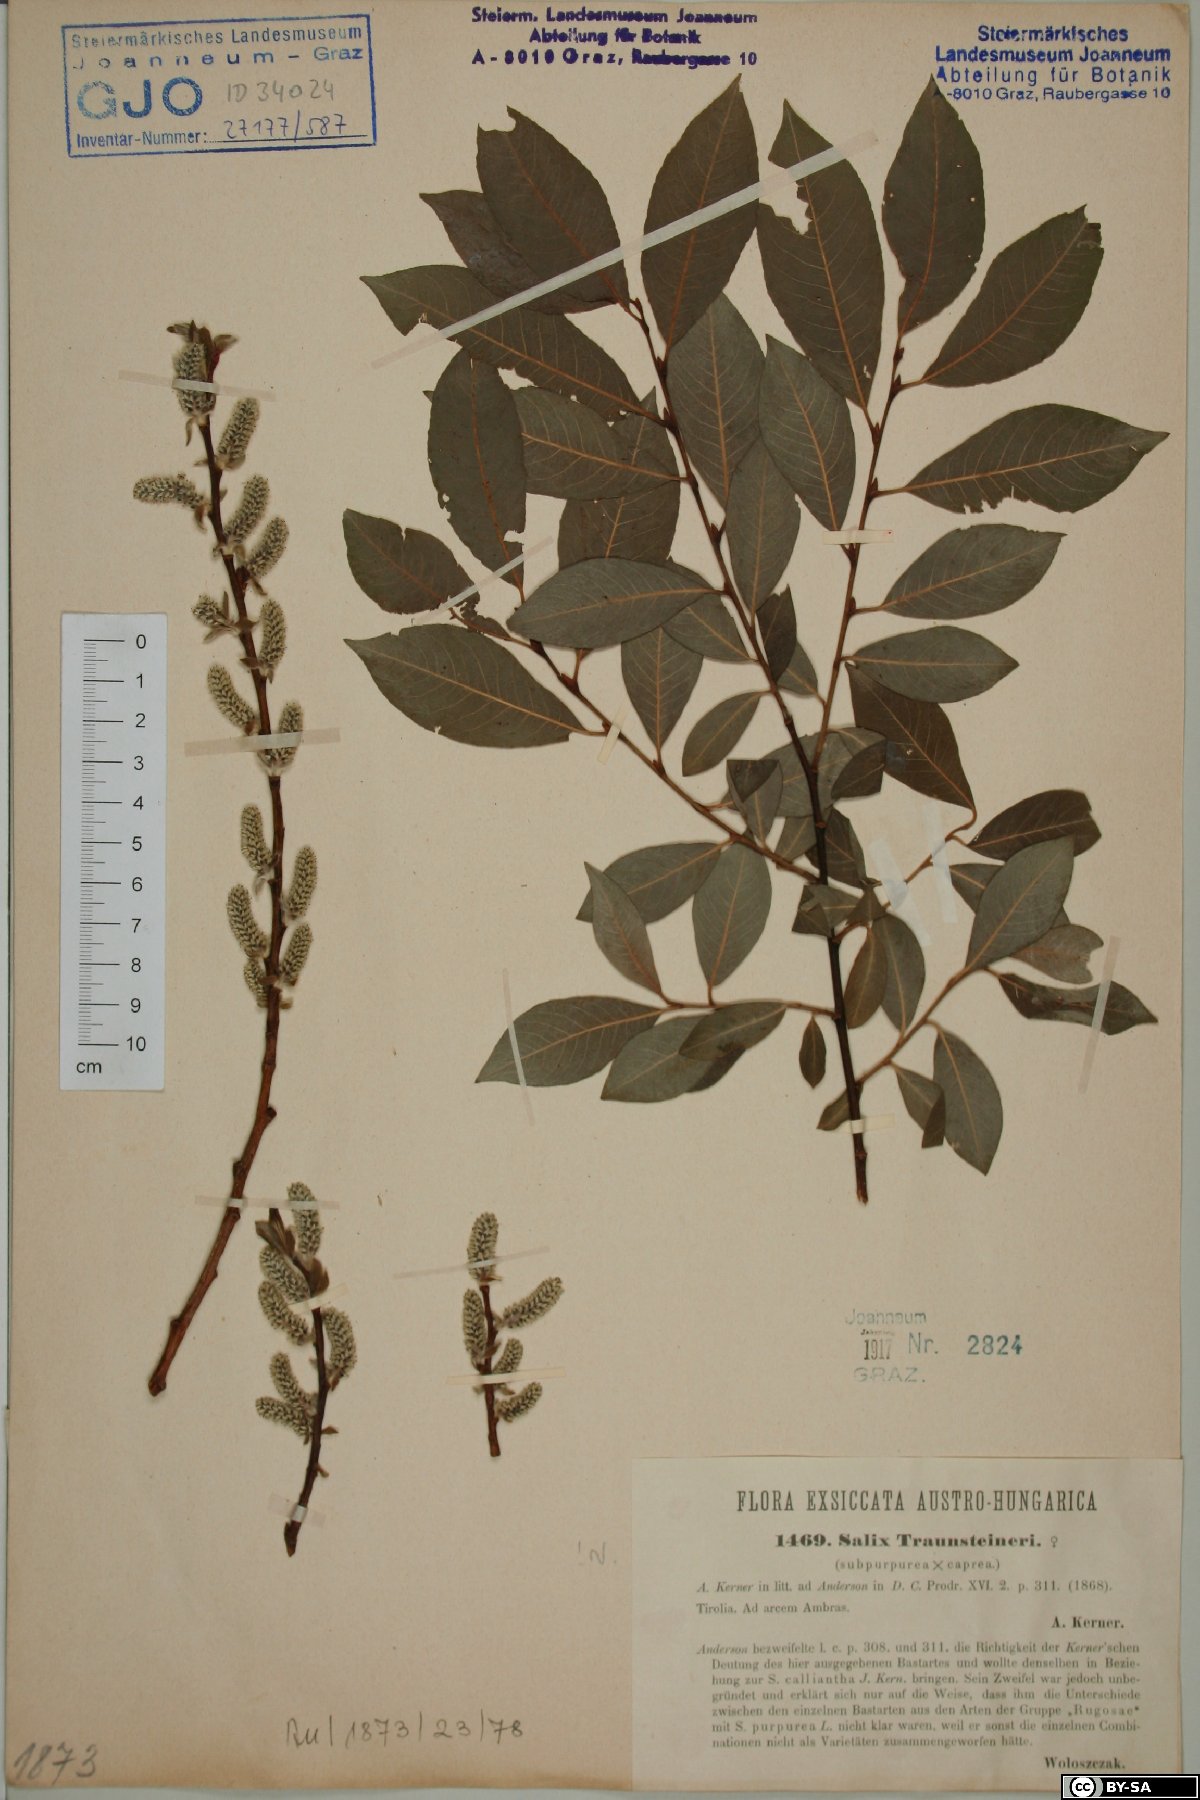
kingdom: Plantae
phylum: Tracheophyta
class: Magnoliopsida
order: Malpighiales
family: Salicaceae
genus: Salix
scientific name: Salix
